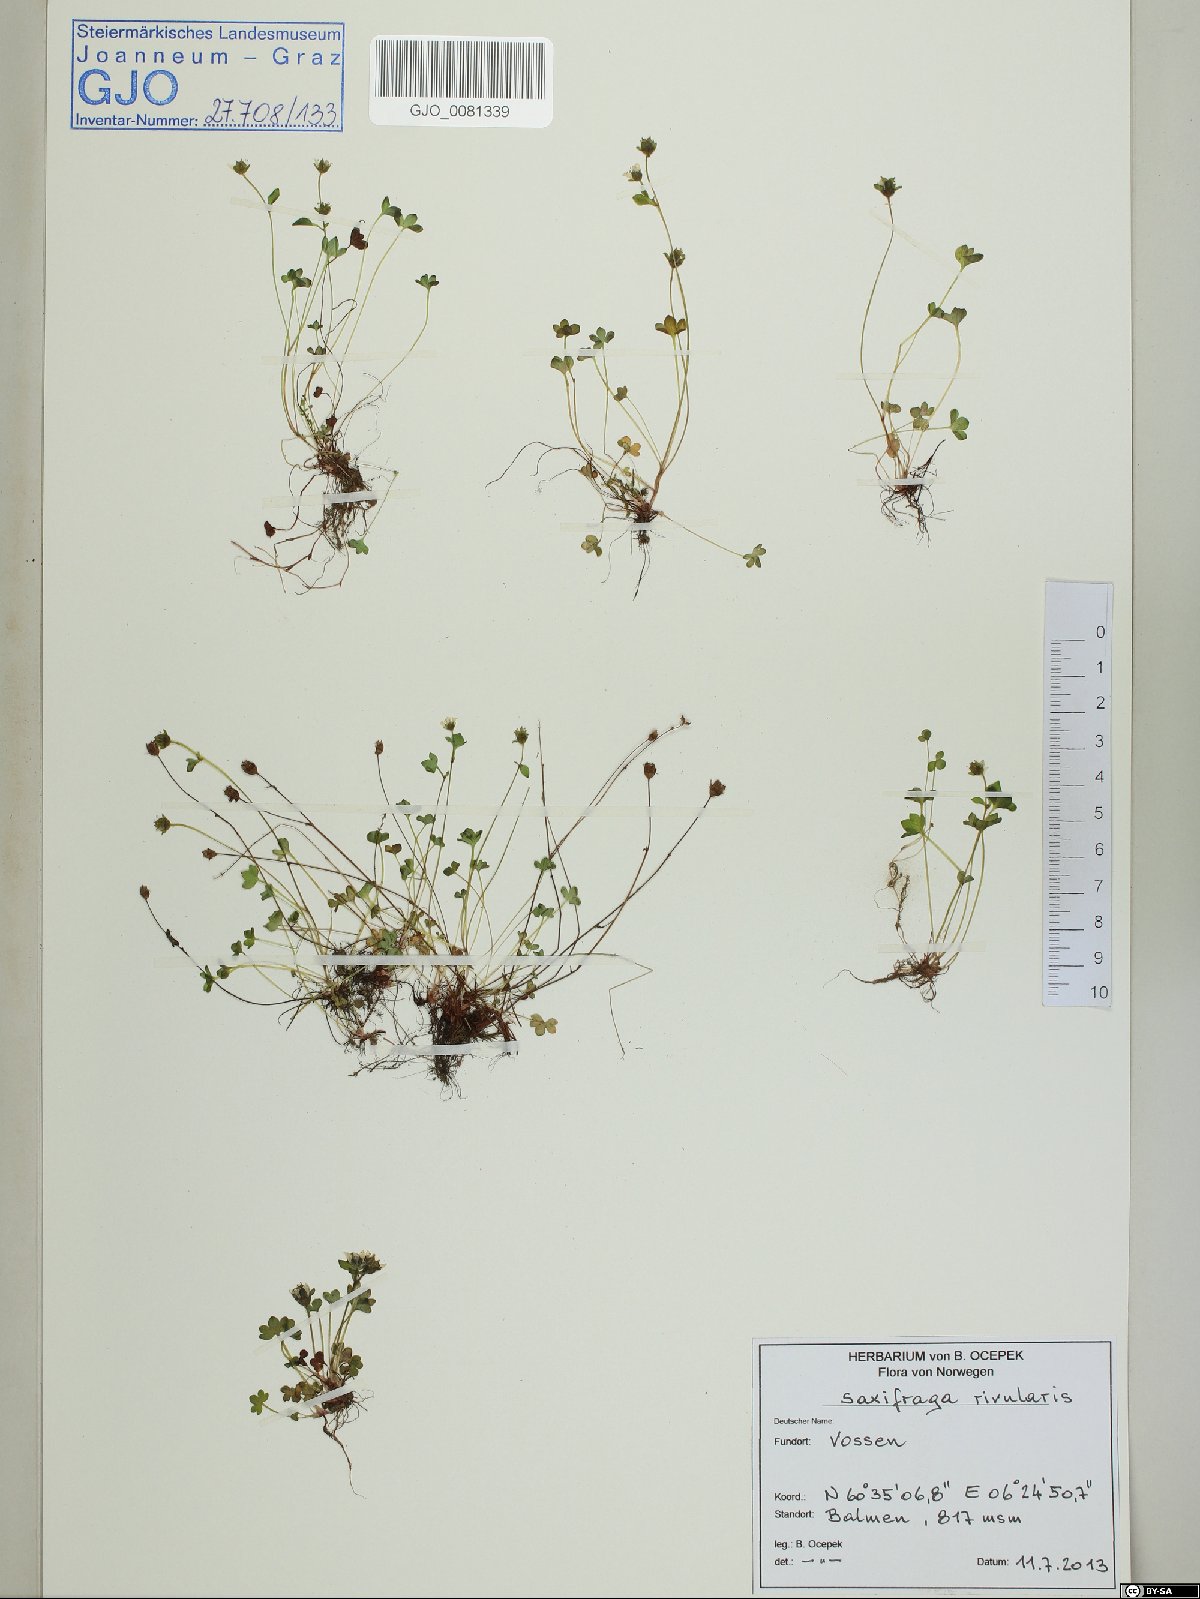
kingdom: Plantae
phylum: Tracheophyta
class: Magnoliopsida
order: Saxifragales
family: Saxifragaceae
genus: Saxifraga
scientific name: Saxifraga rivularis
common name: Highland saxifrage
